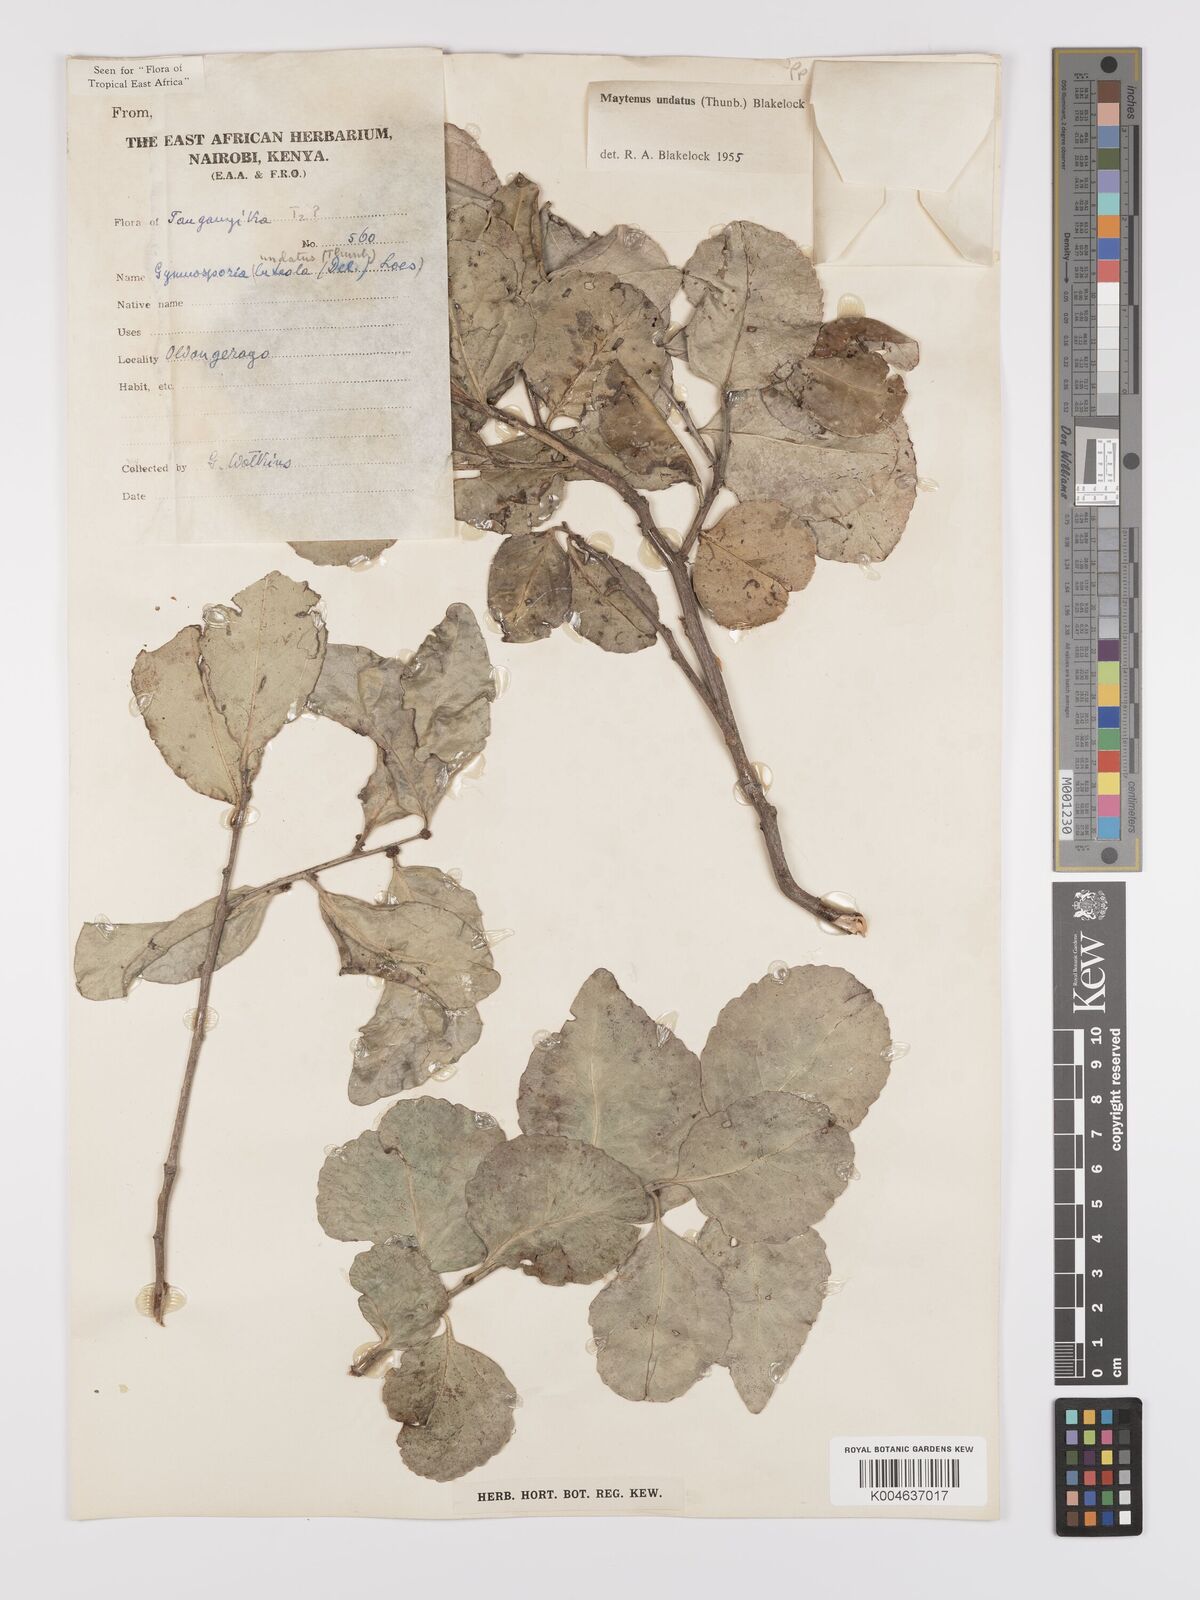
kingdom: Plantae
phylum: Tracheophyta
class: Magnoliopsida
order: Celastrales
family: Celastraceae
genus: Gymnosporia
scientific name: Gymnosporia undata
